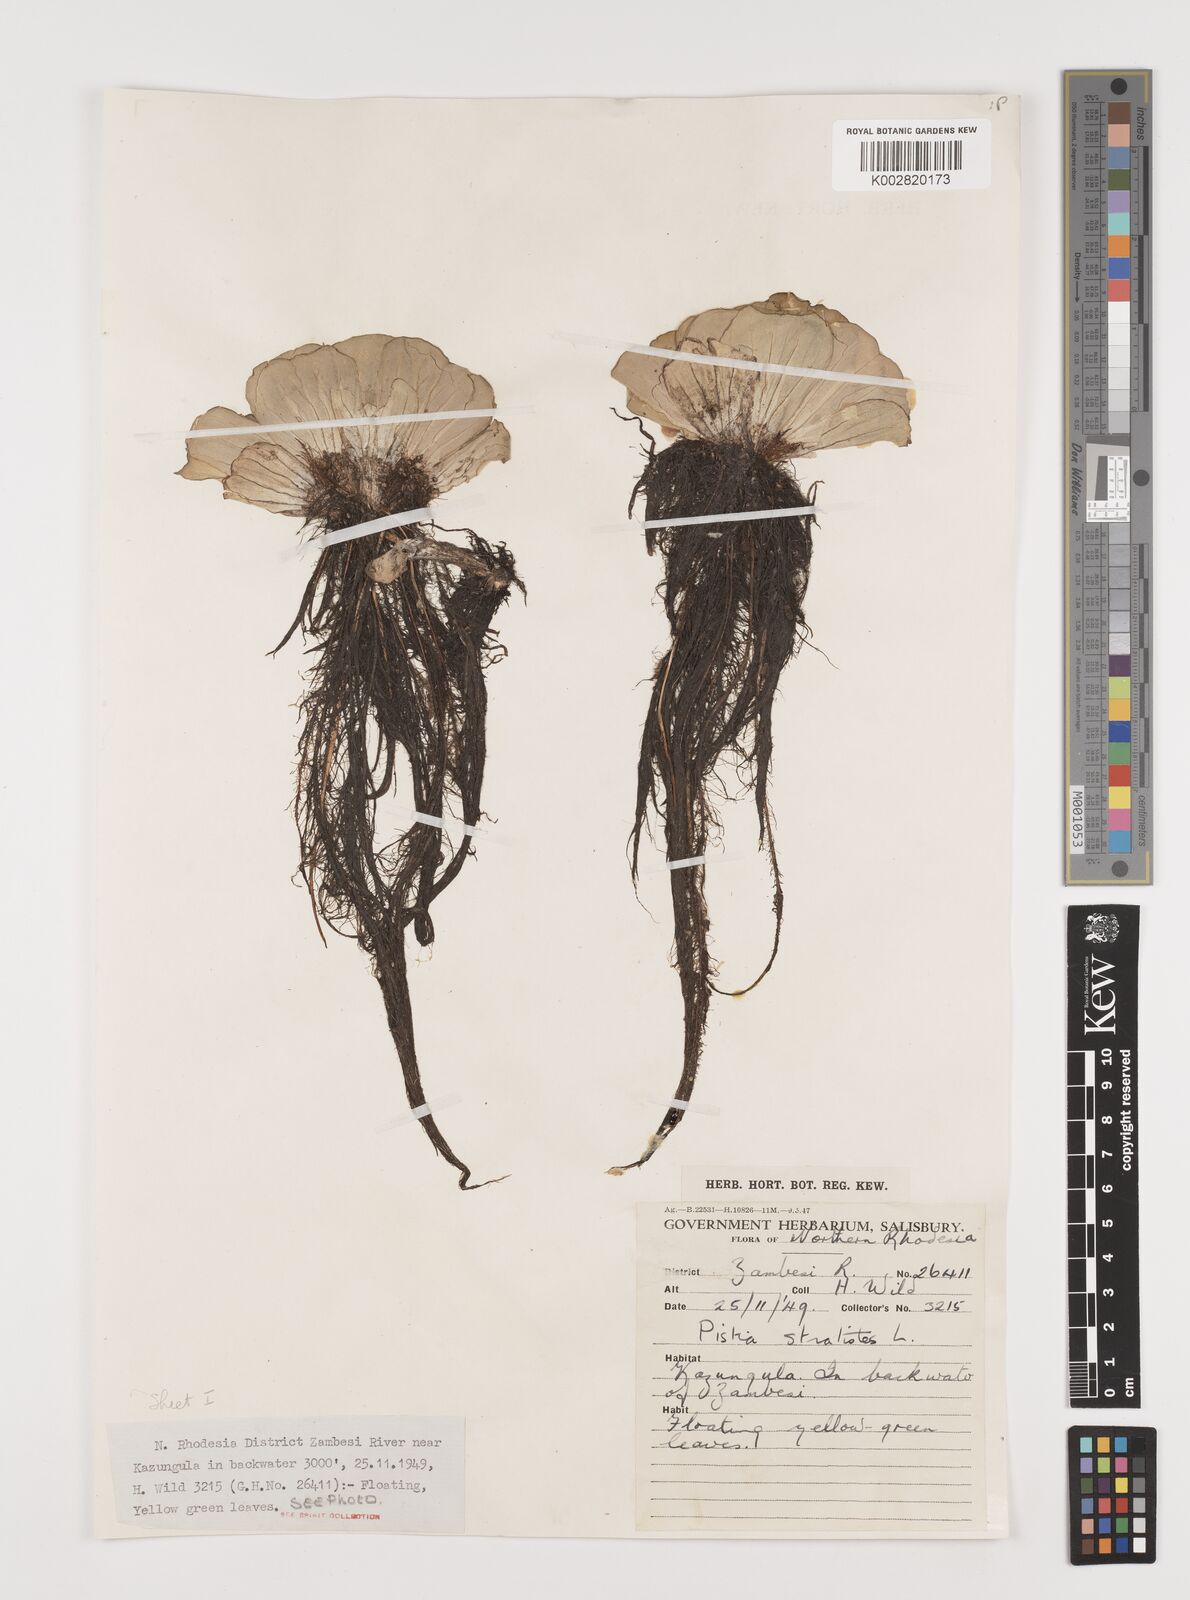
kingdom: Plantae
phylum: Tracheophyta
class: Liliopsida
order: Alismatales
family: Araceae
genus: Pistia
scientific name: Pistia stratiotes
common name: Water lettuce
